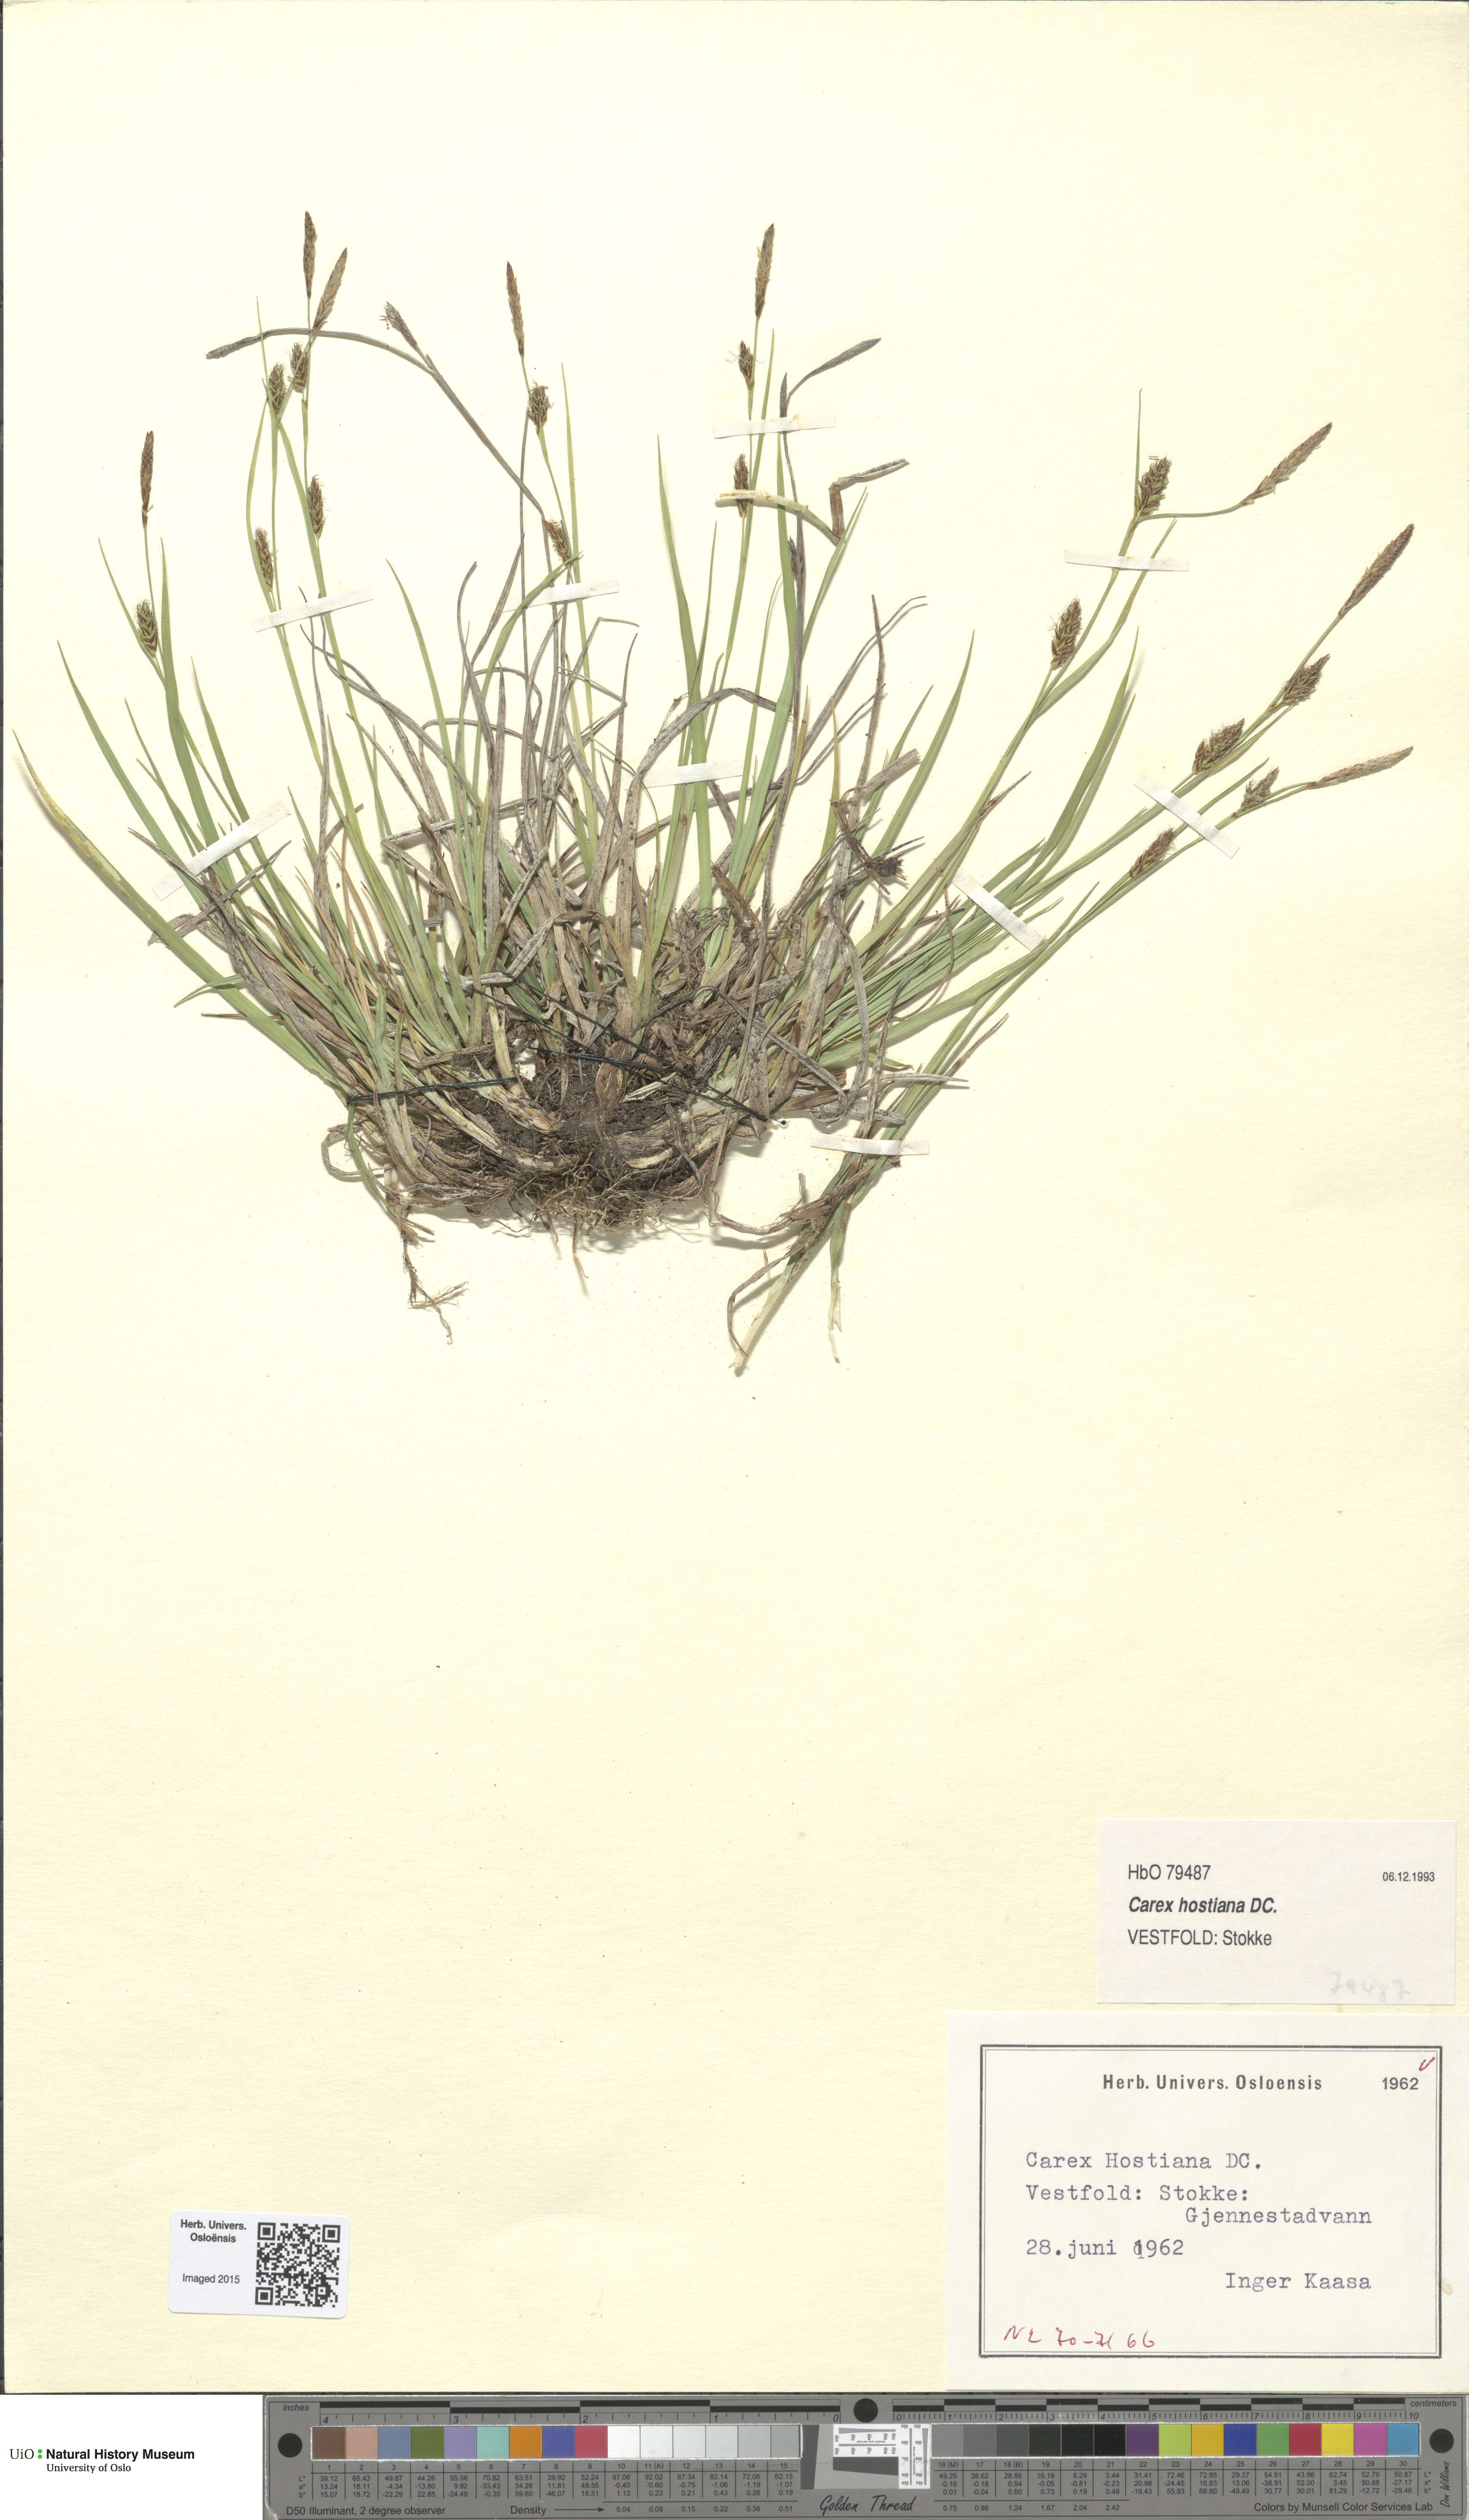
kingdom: Plantae
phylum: Tracheophyta
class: Liliopsida
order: Poales
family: Cyperaceae
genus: Carex
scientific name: Carex hostiana
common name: Tawny sedge
